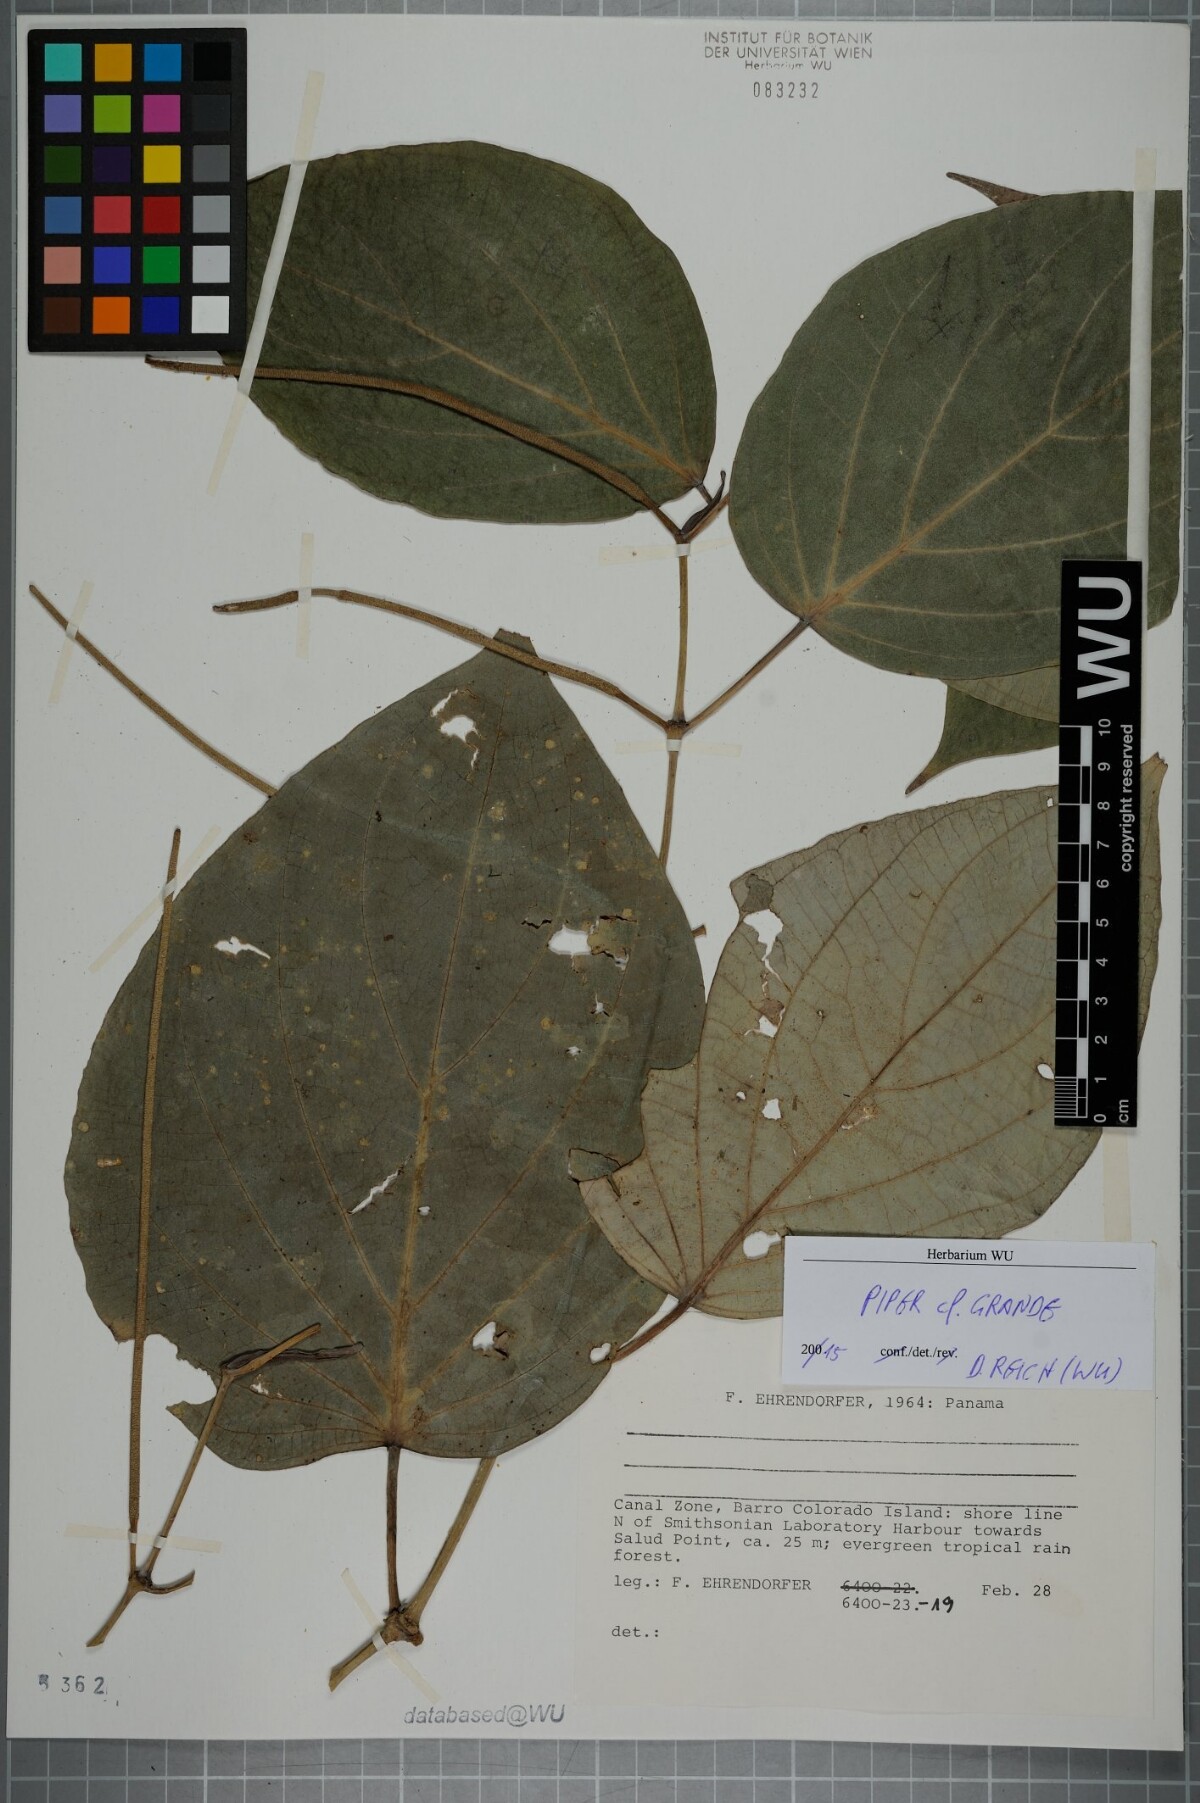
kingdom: Plantae
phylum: Tracheophyta
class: Magnoliopsida
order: Piperales
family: Piperaceae
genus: Piper
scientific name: Piper grande
